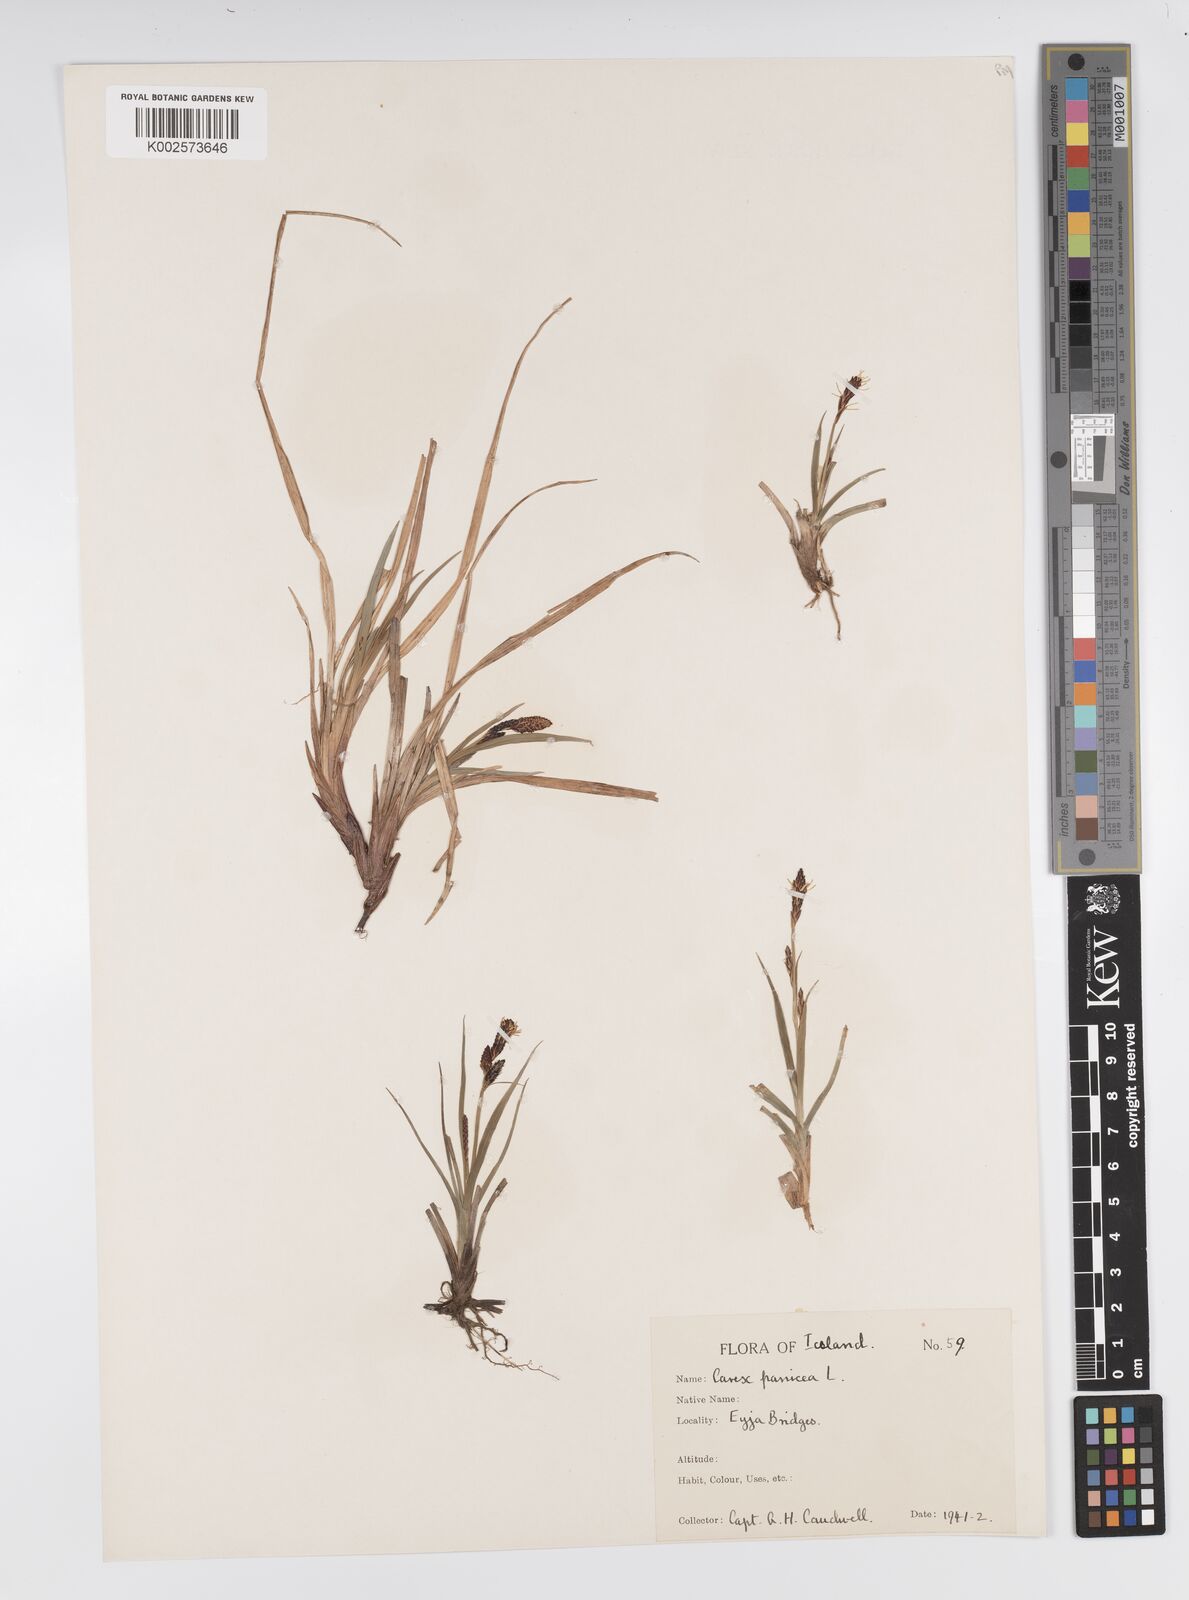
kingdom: Plantae
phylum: Tracheophyta
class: Liliopsida
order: Poales
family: Cyperaceae
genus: Carex
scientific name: Carex panicea
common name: Carnation sedge
